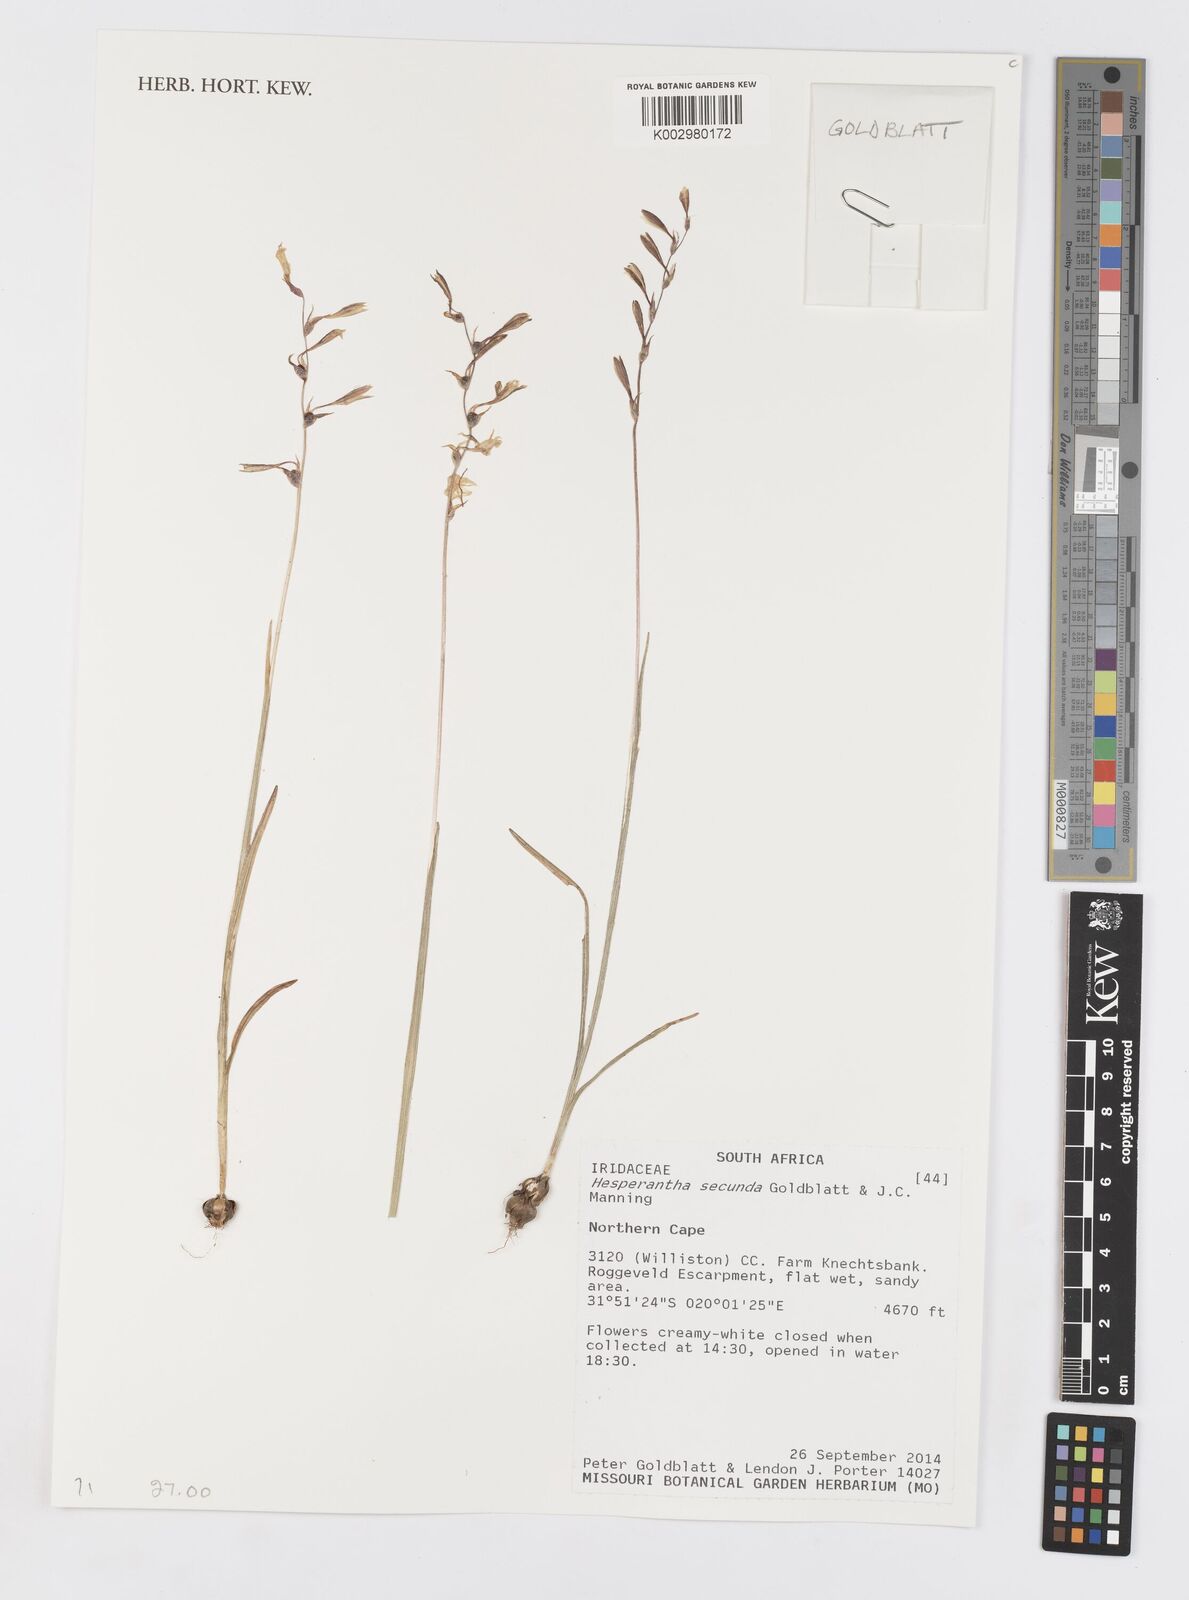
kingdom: Plantae
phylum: Tracheophyta
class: Liliopsida
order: Asparagales
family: Iridaceae
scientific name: Iridaceae
